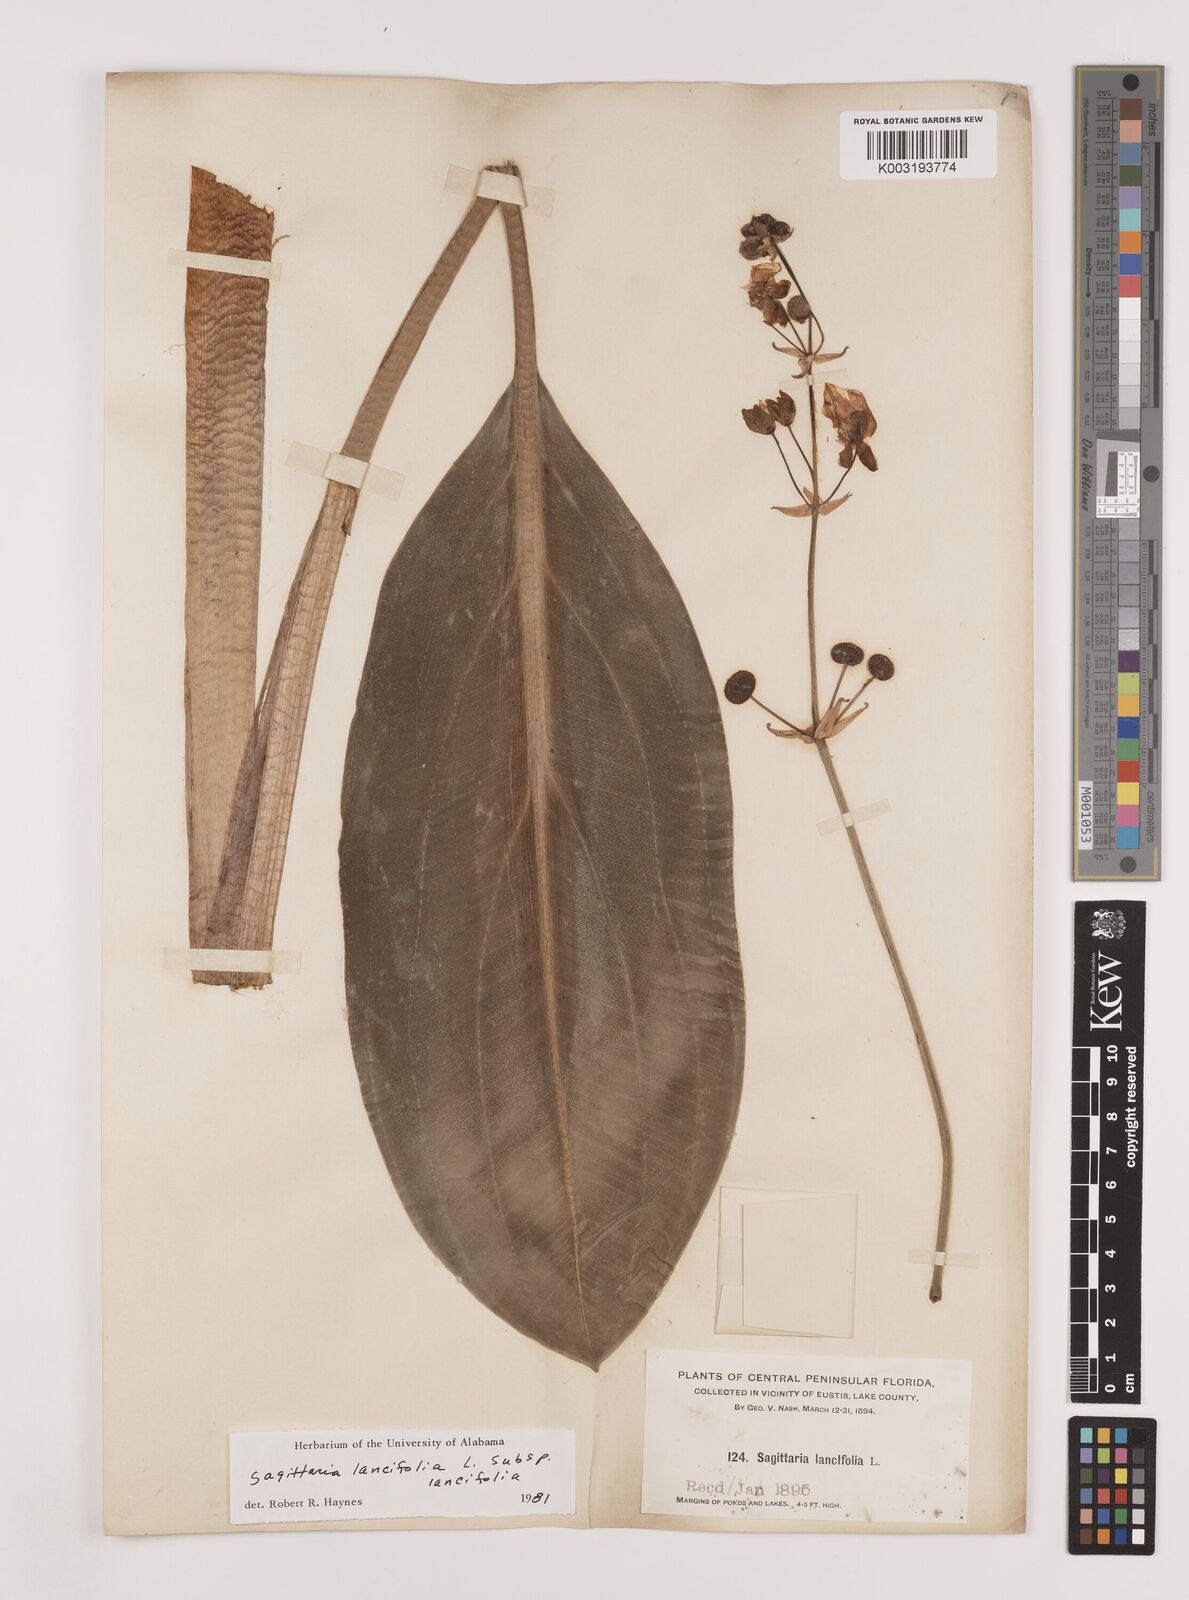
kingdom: Plantae
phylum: Tracheophyta
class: Liliopsida
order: Alismatales
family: Alismataceae
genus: Sagittaria
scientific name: Sagittaria lancifolia
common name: Lance-leaf arrowhead
